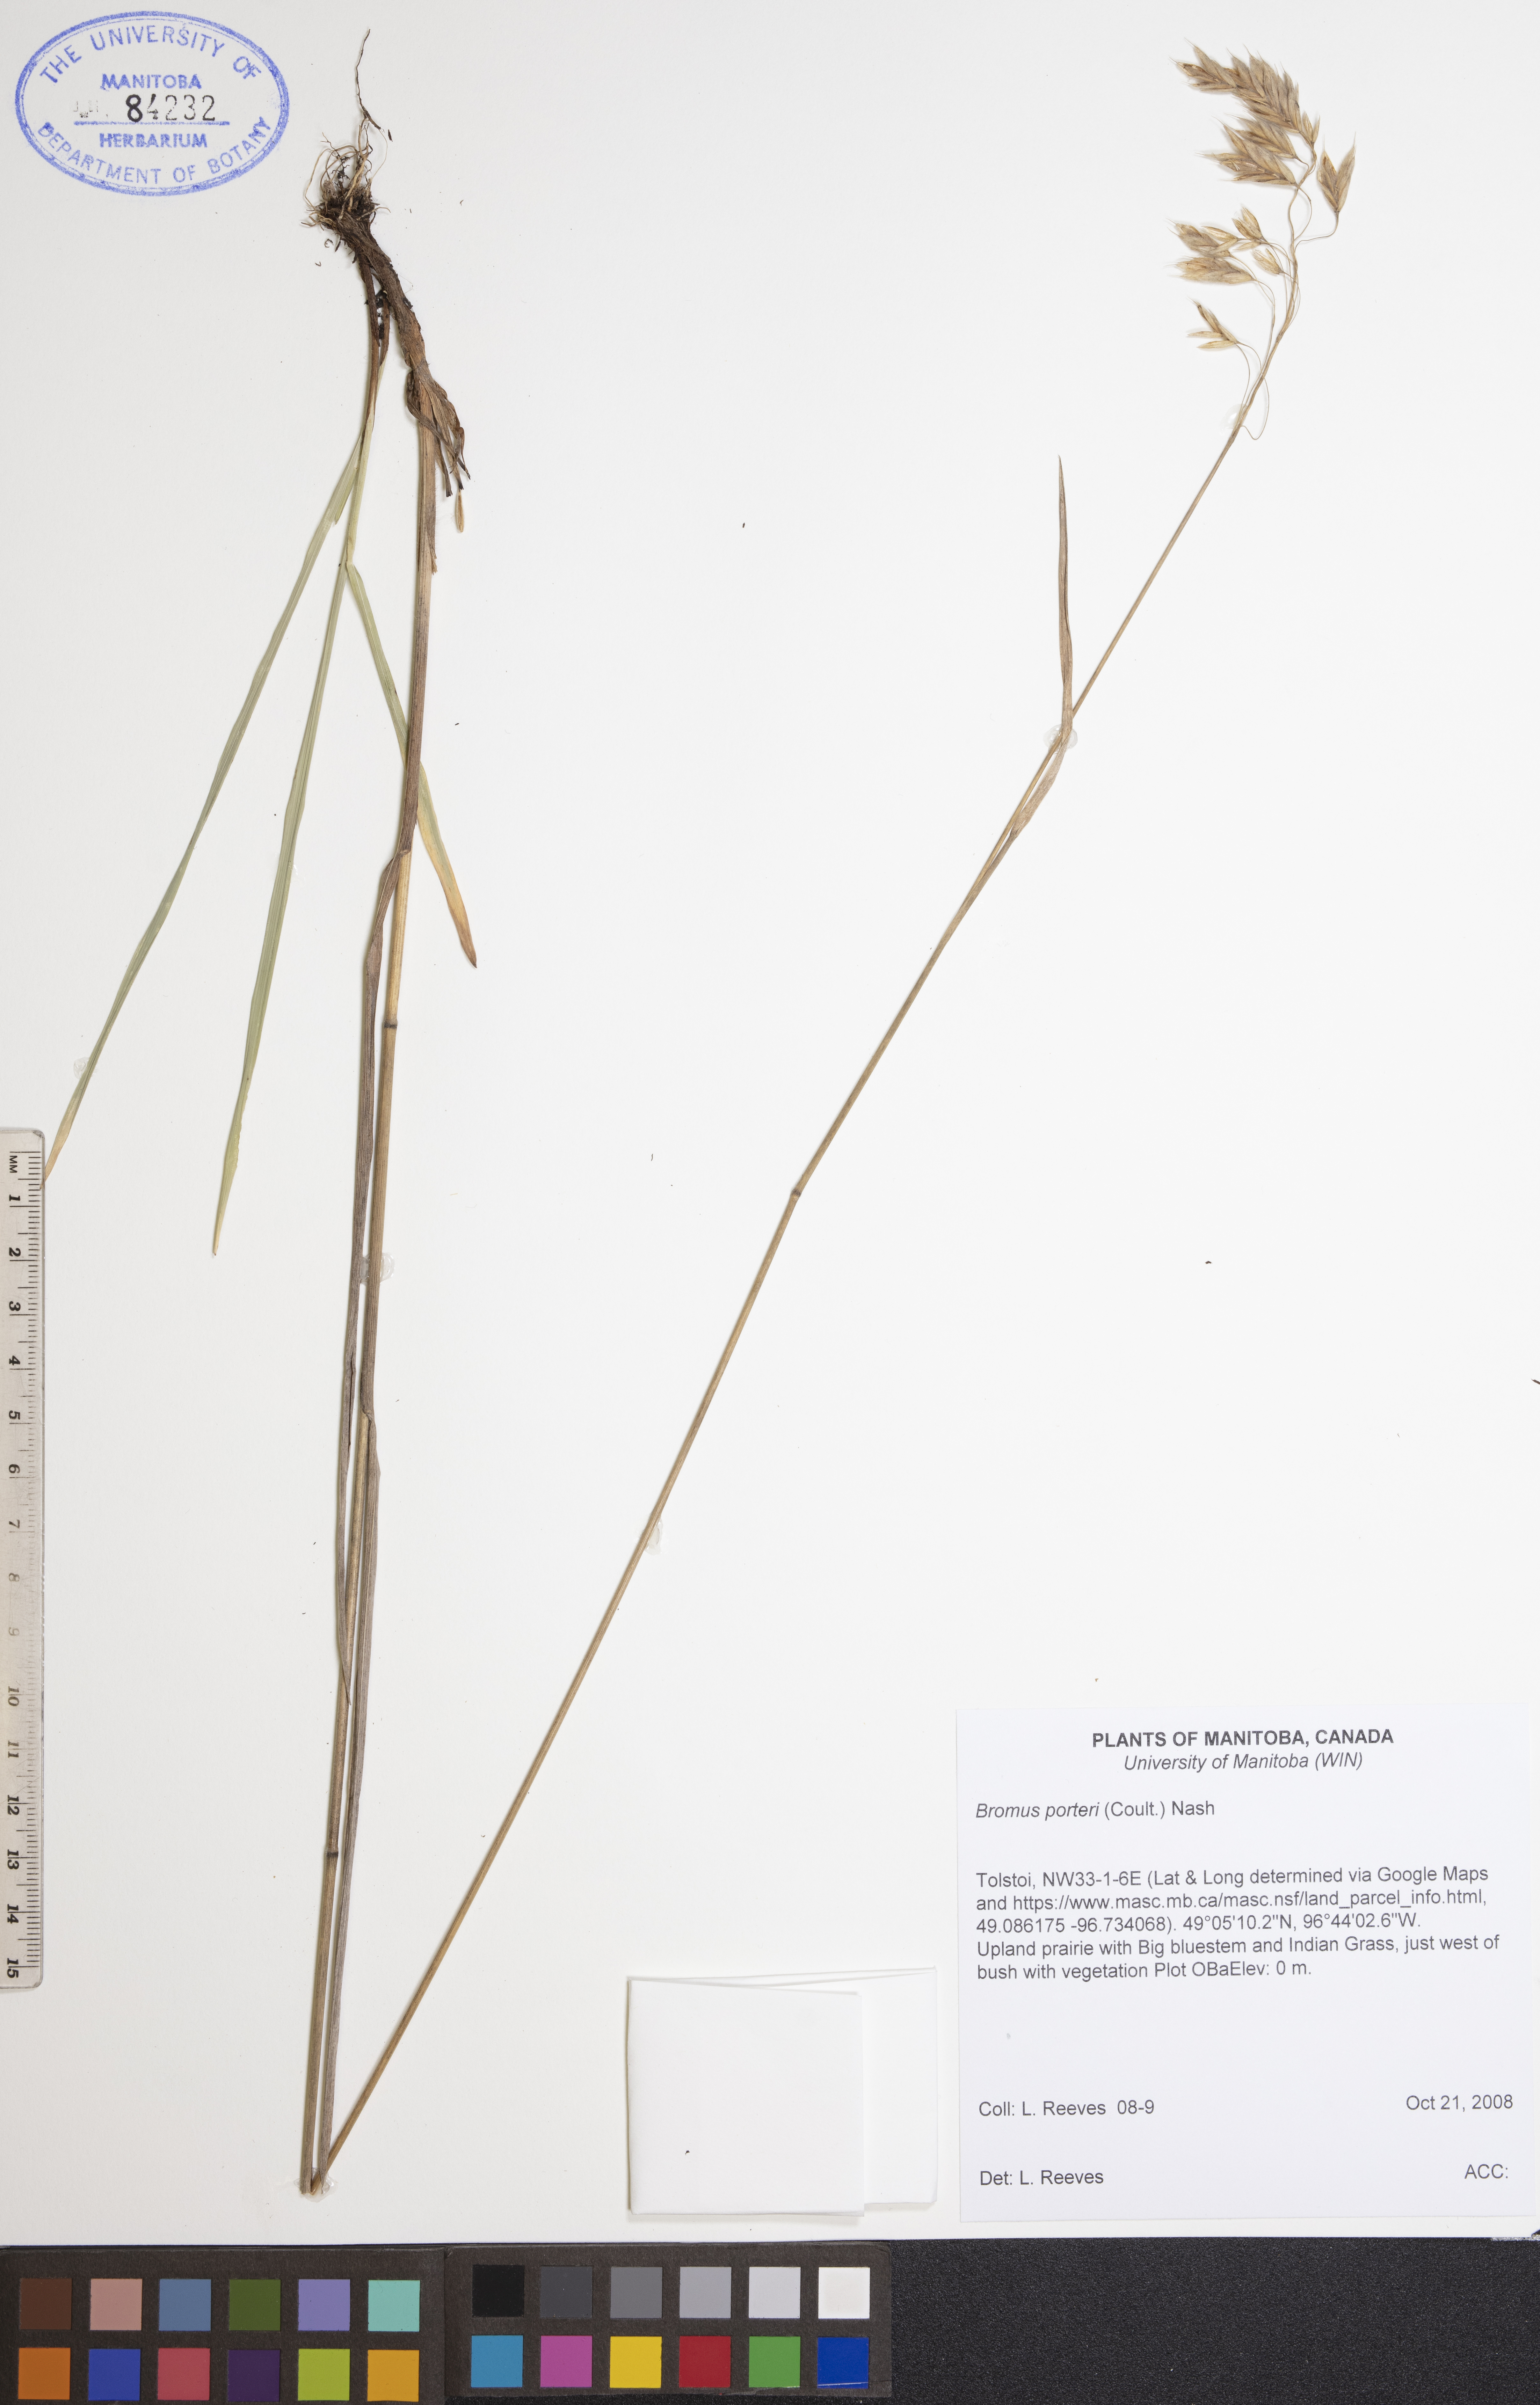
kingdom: Plantae
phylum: Tracheophyta
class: Liliopsida
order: Poales
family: Poaceae
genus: Bromus
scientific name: Bromus porteri
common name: Nodding brome
